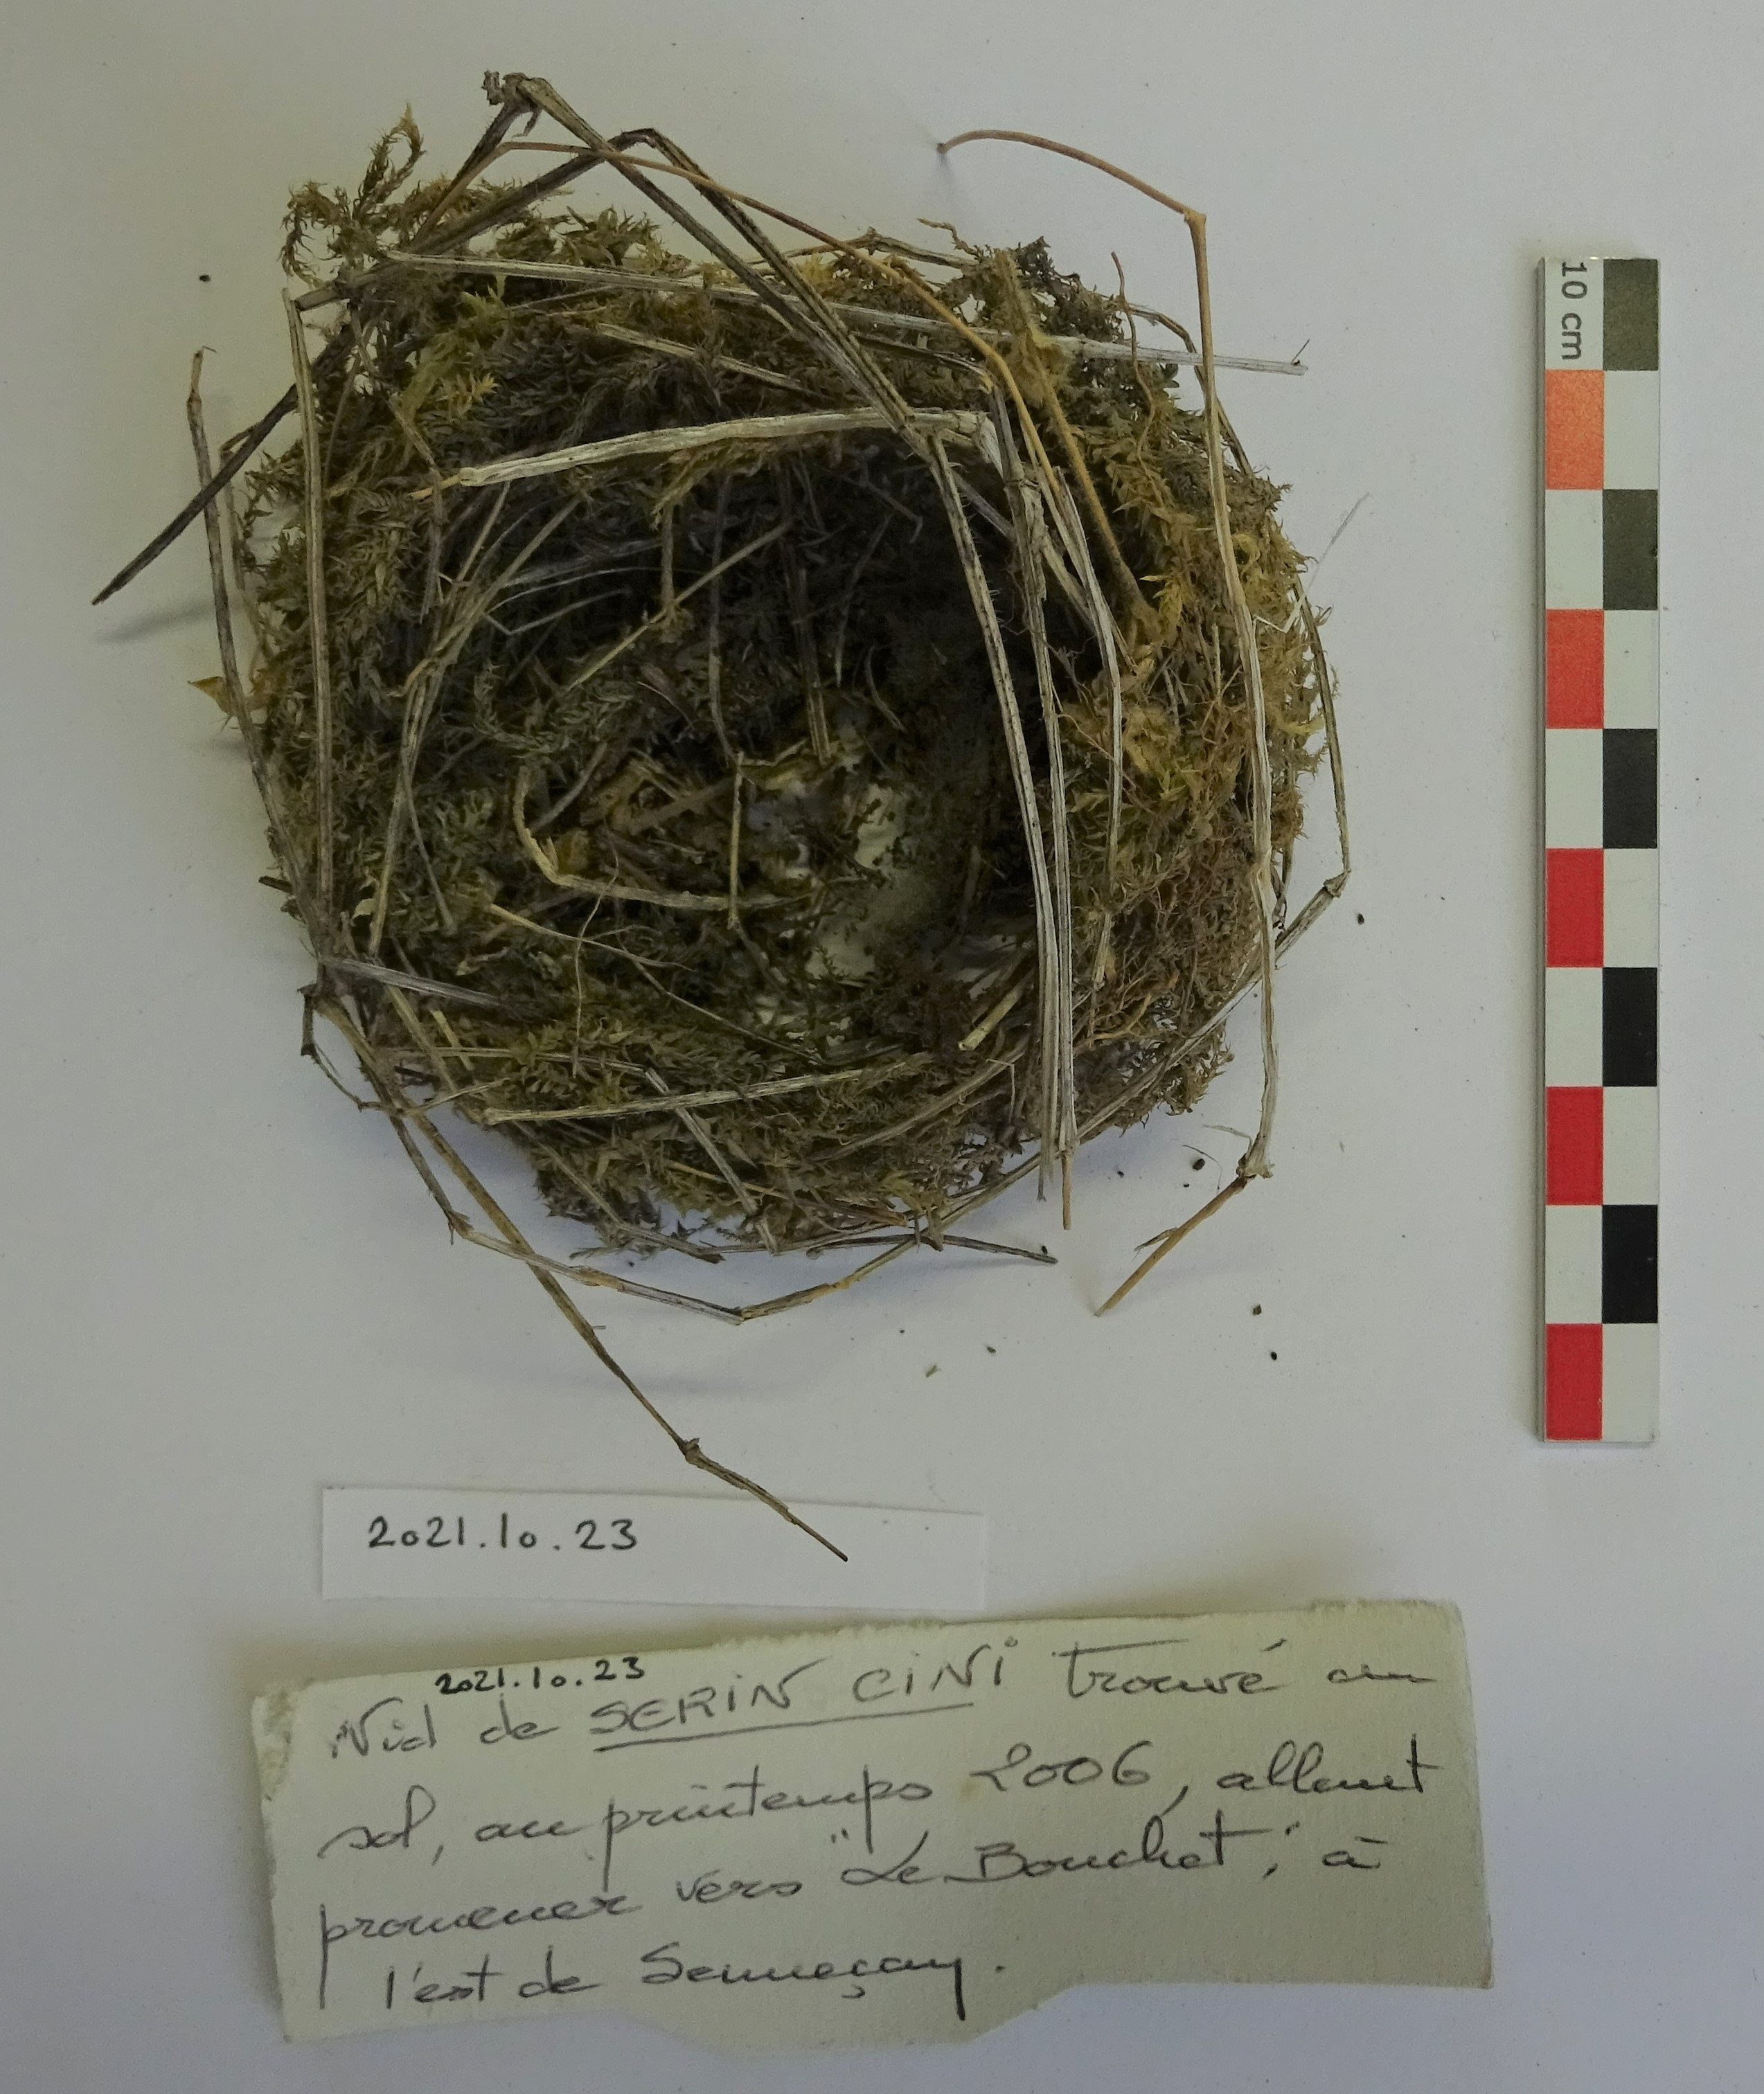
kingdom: Animalia
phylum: Chordata
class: Aves
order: Passeriformes
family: Fringillidae
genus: Serinus
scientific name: Serinus serinus
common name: European serin
